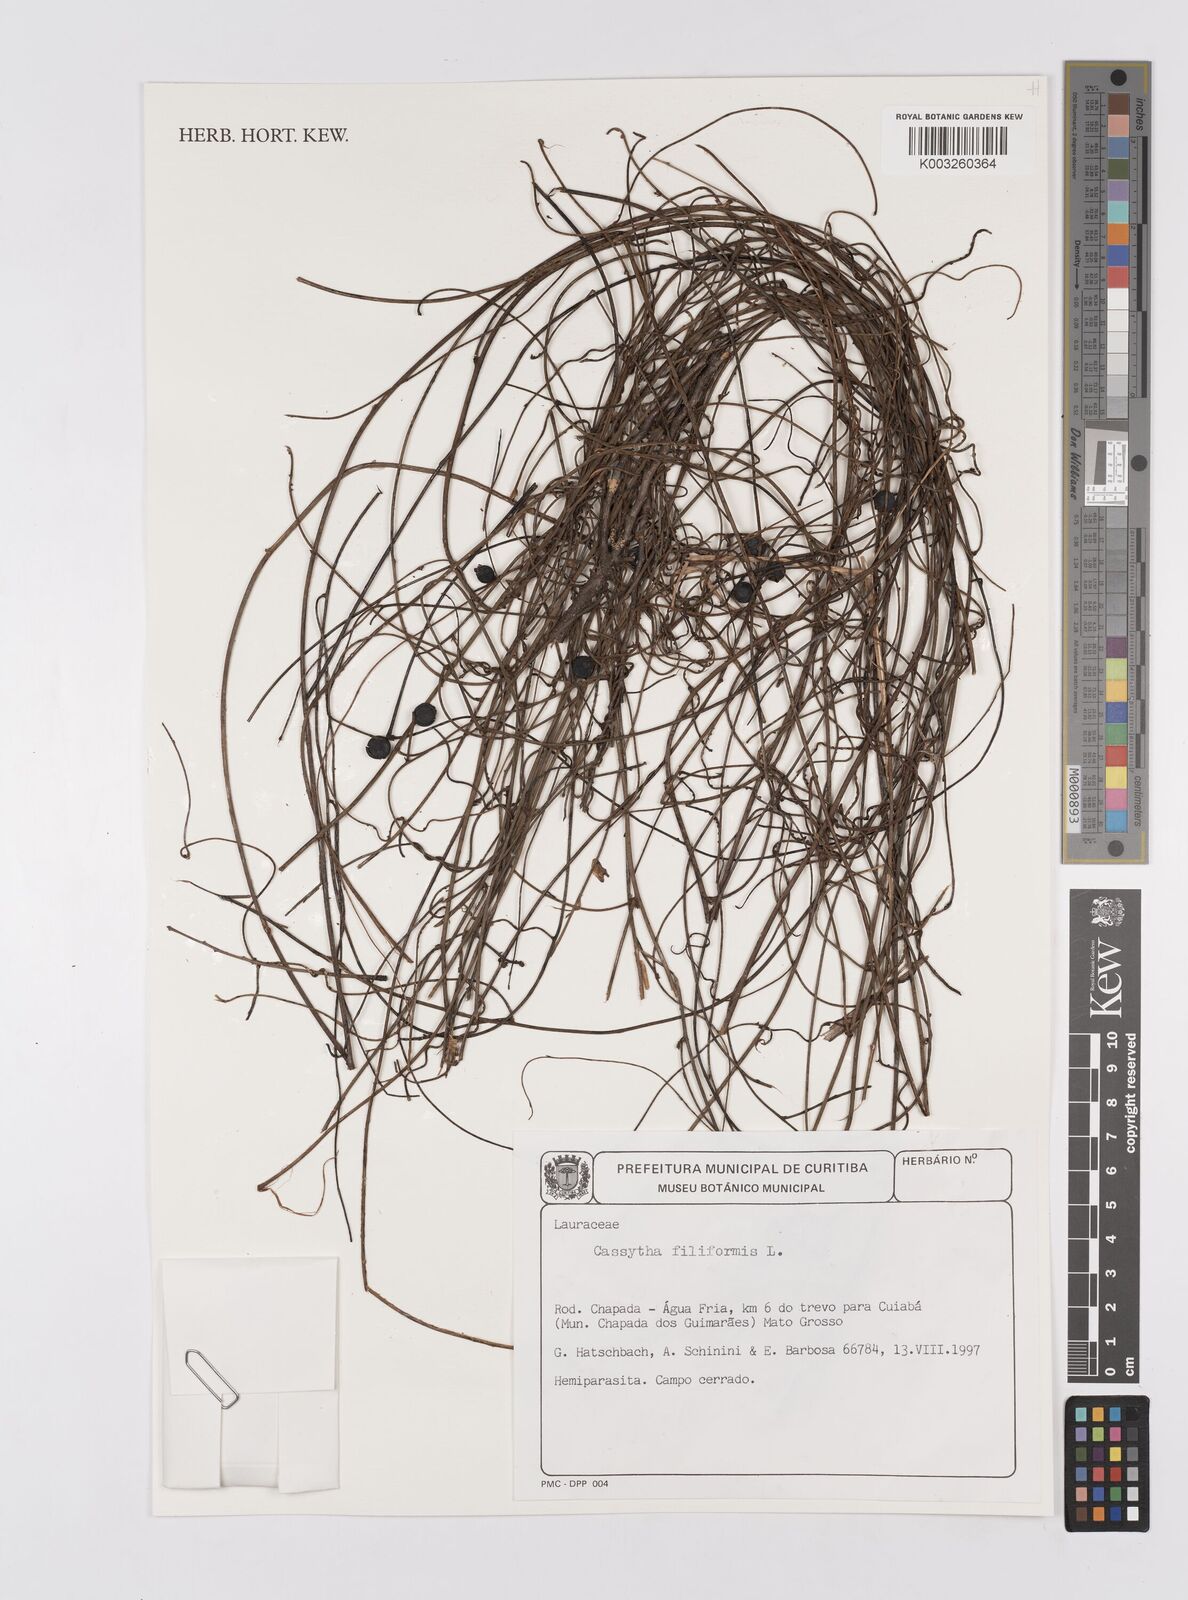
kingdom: Plantae
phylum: Tracheophyta
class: Magnoliopsida
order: Laurales
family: Lauraceae
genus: Cassytha
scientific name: Cassytha filiformis
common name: Dodder-laurel
